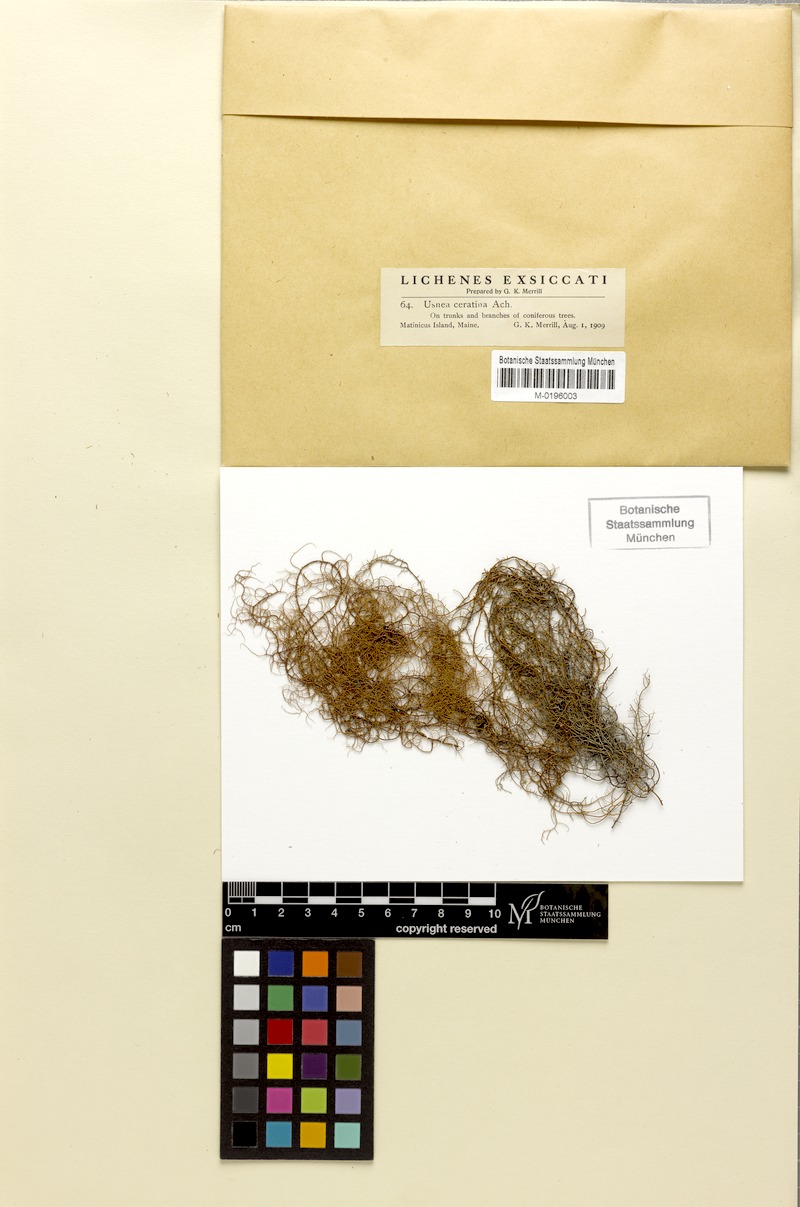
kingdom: Fungi
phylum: Ascomycota
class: Lecanoromycetes
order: Lecanorales
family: Parmeliaceae
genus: Usnea
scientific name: Usnea ceratina
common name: Warty beard lichen
